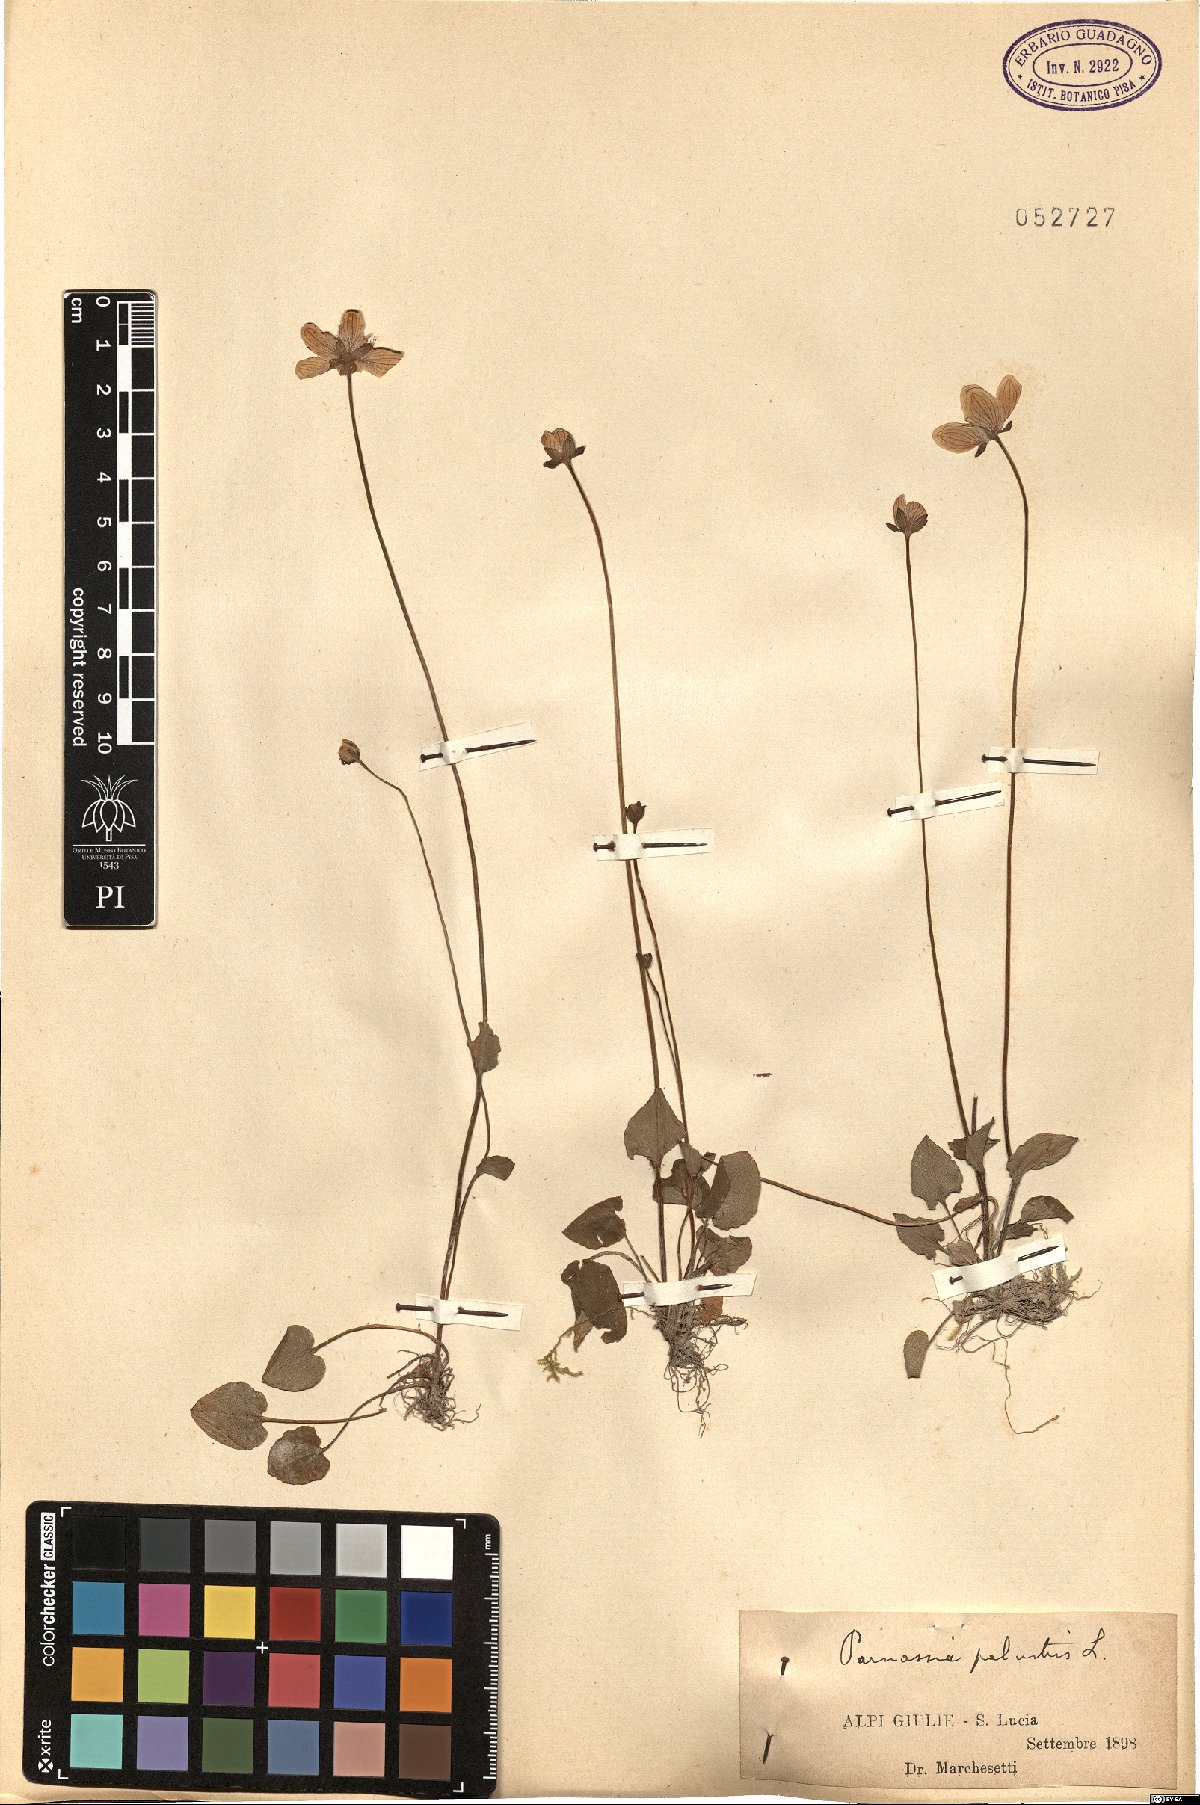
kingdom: Plantae
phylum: Tracheophyta
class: Magnoliopsida
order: Celastrales
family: Parnassiaceae
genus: Parnassia
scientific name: Parnassia palustris
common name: Grass-of-parnassus
